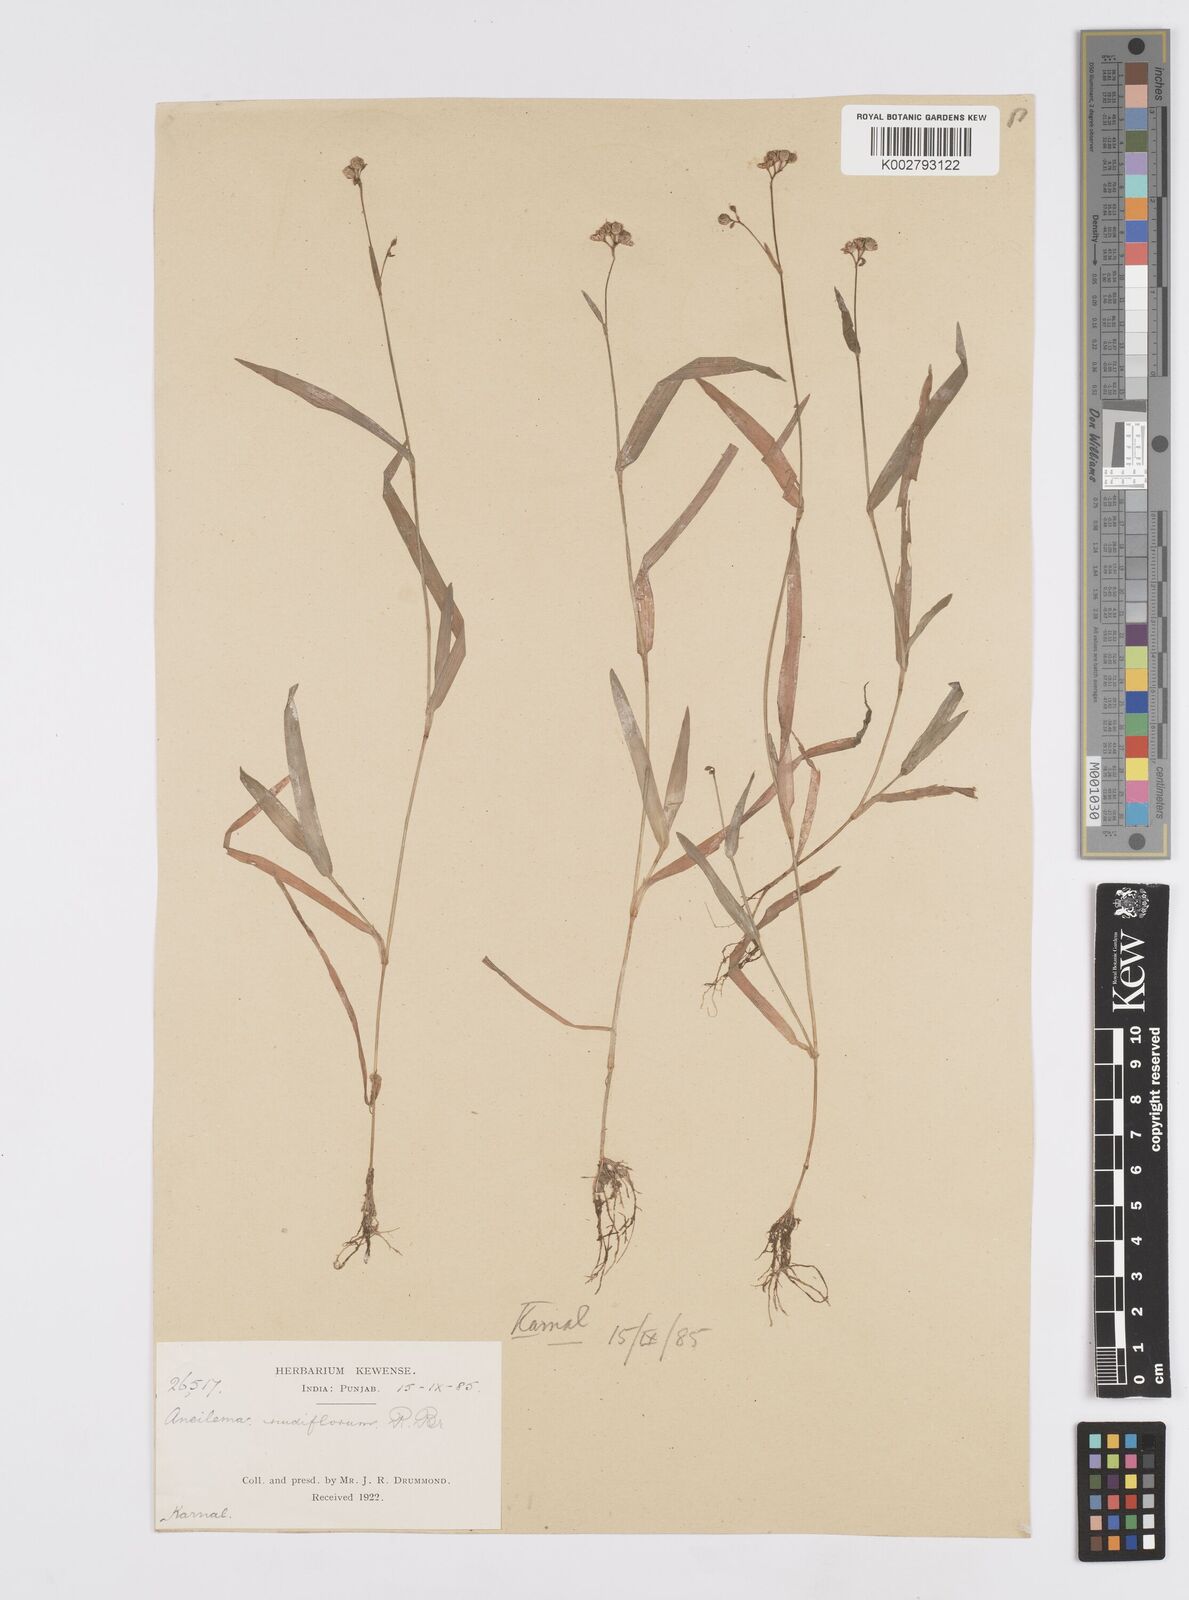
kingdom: Plantae
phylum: Tracheophyta
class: Liliopsida
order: Commelinales
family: Commelinaceae
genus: Murdannia
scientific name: Murdannia nudiflora
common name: Nakedstem dewflower
